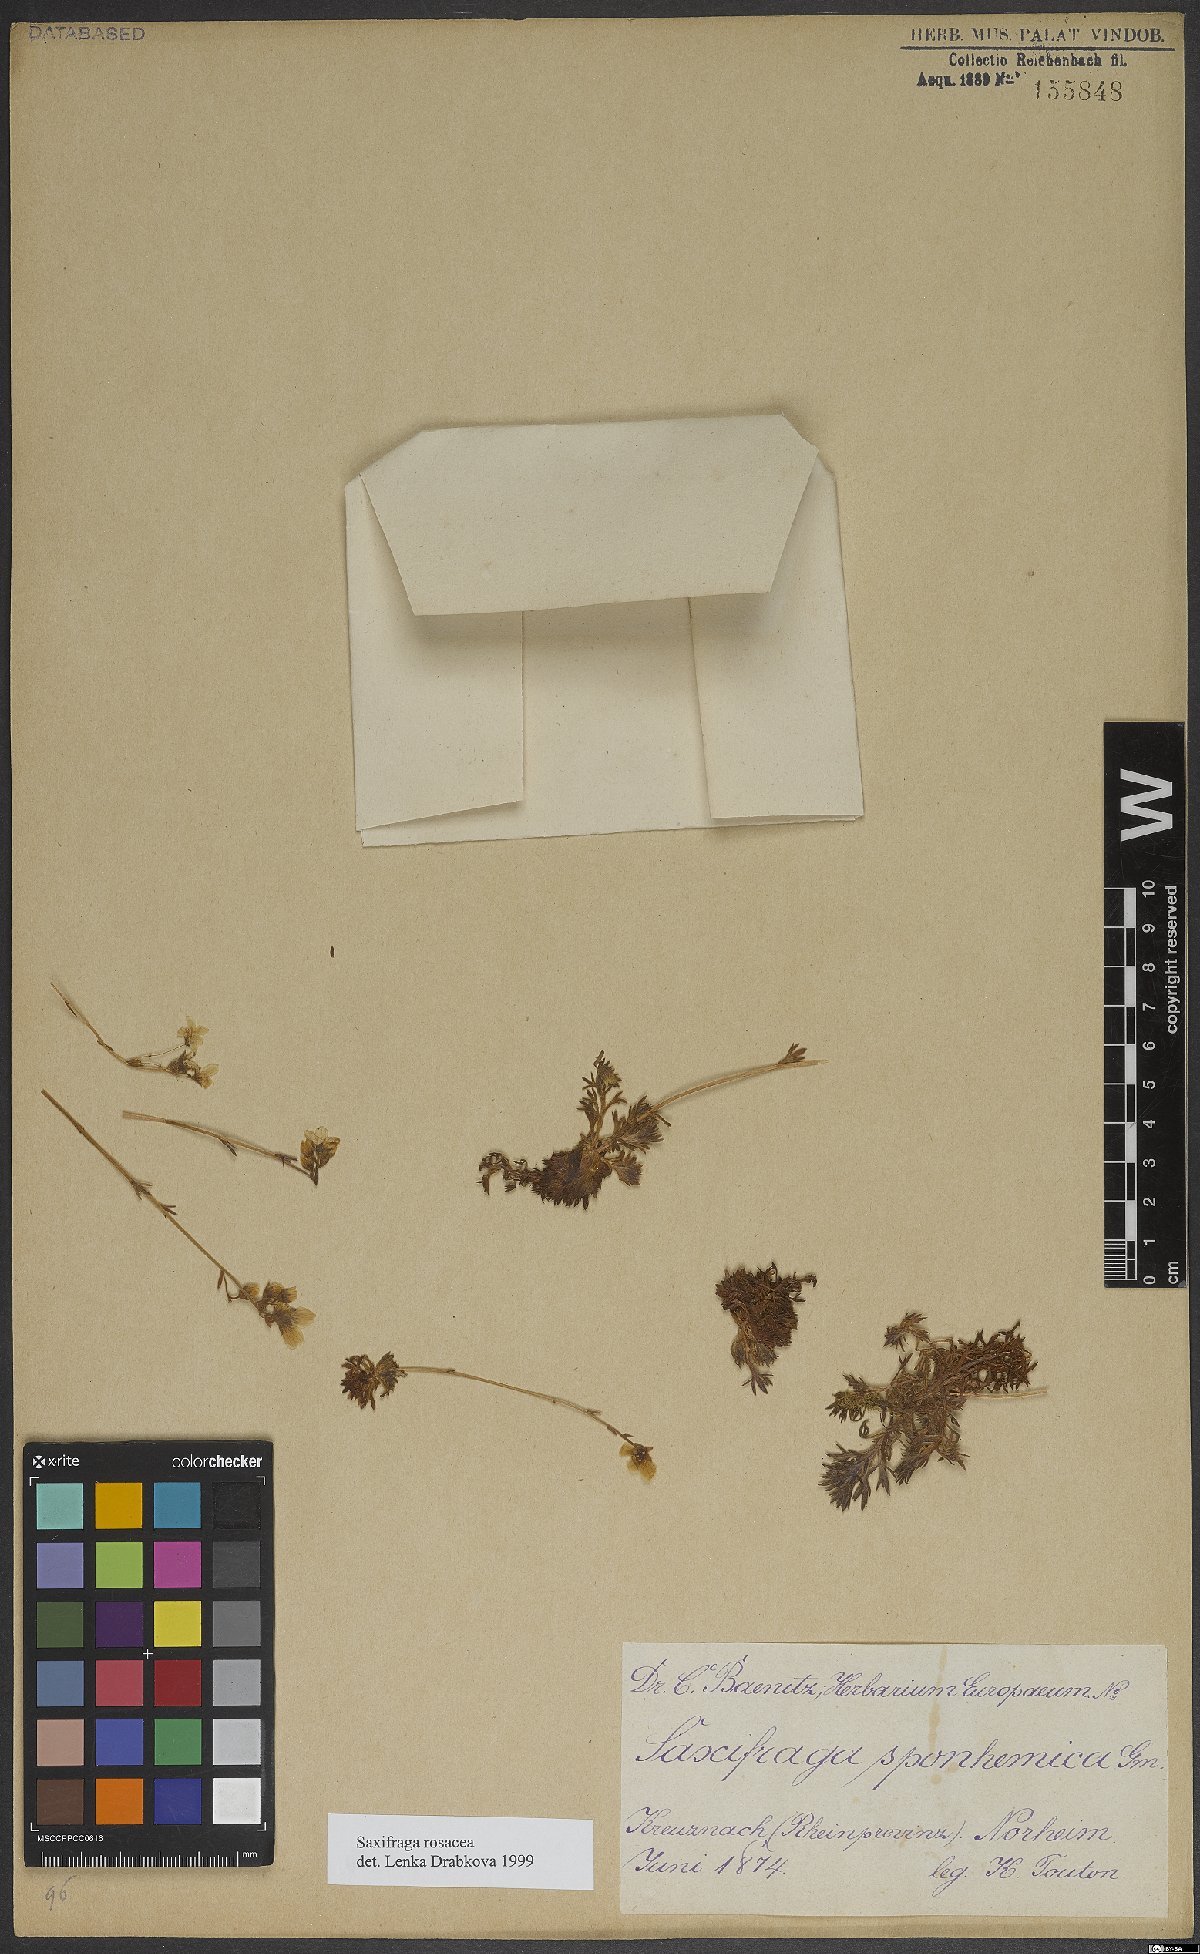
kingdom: Plantae
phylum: Tracheophyta
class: Magnoliopsida
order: Saxifragales
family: Saxifragaceae
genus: Saxifraga
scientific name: Saxifraga rosacea
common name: Irish saxifrage
